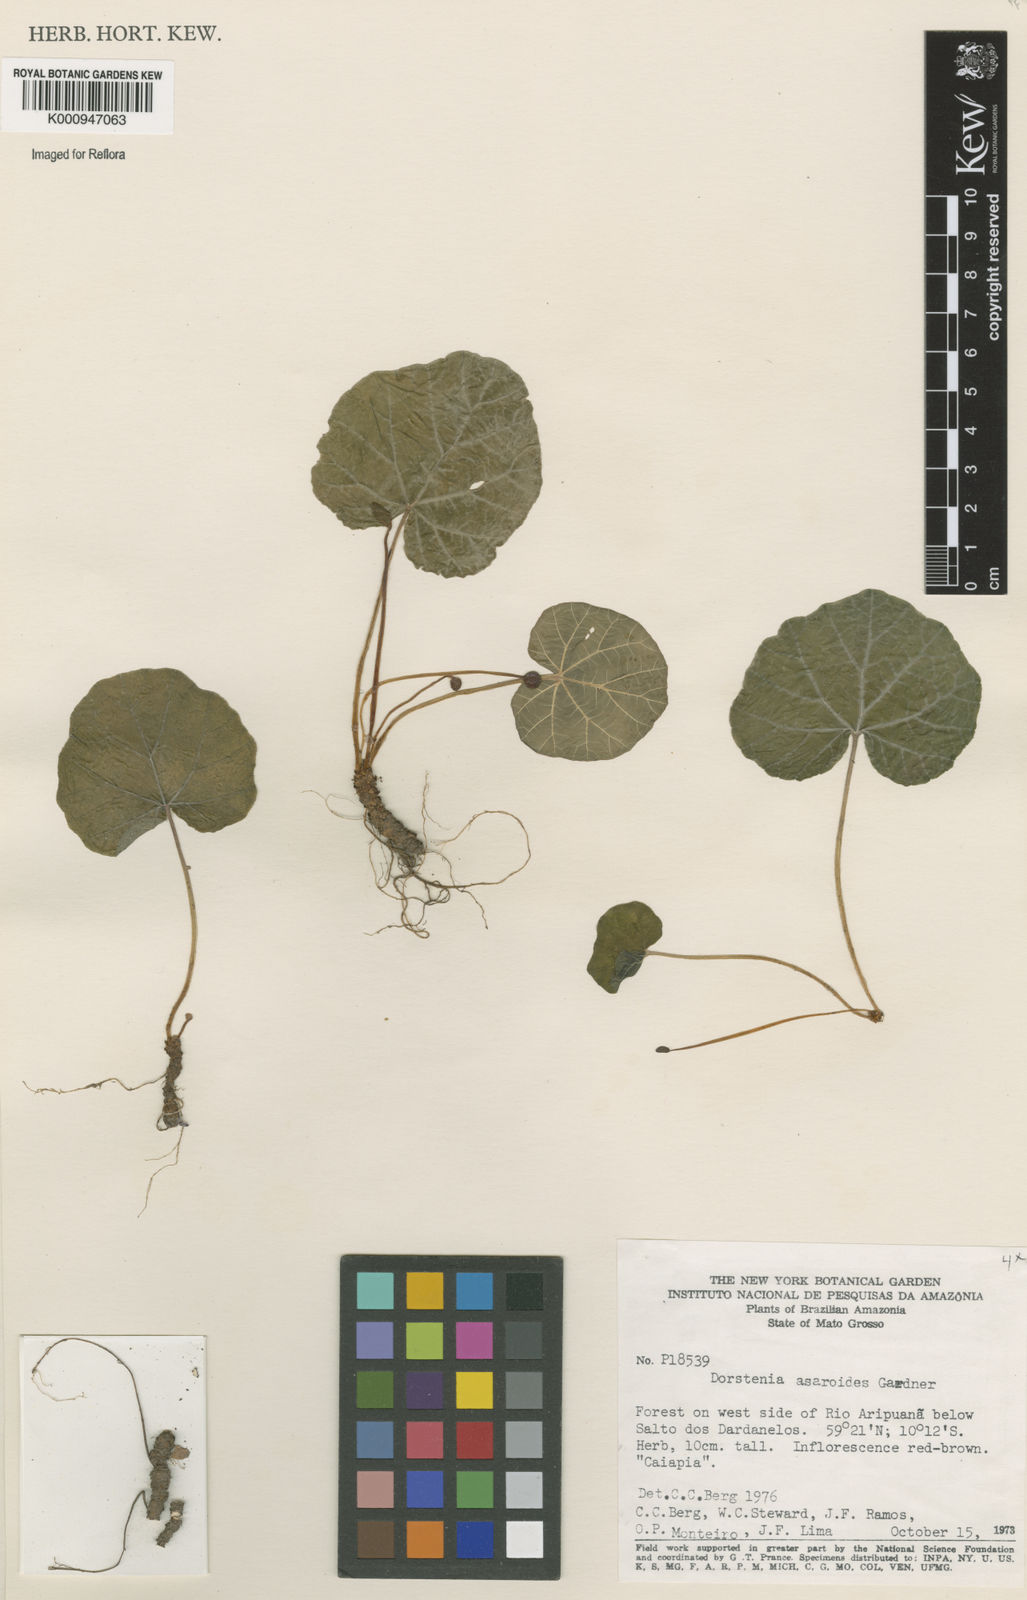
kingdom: Plantae
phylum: Tracheophyta
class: Magnoliopsida
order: Rosales
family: Moraceae
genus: Dorstenia
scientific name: Dorstenia
